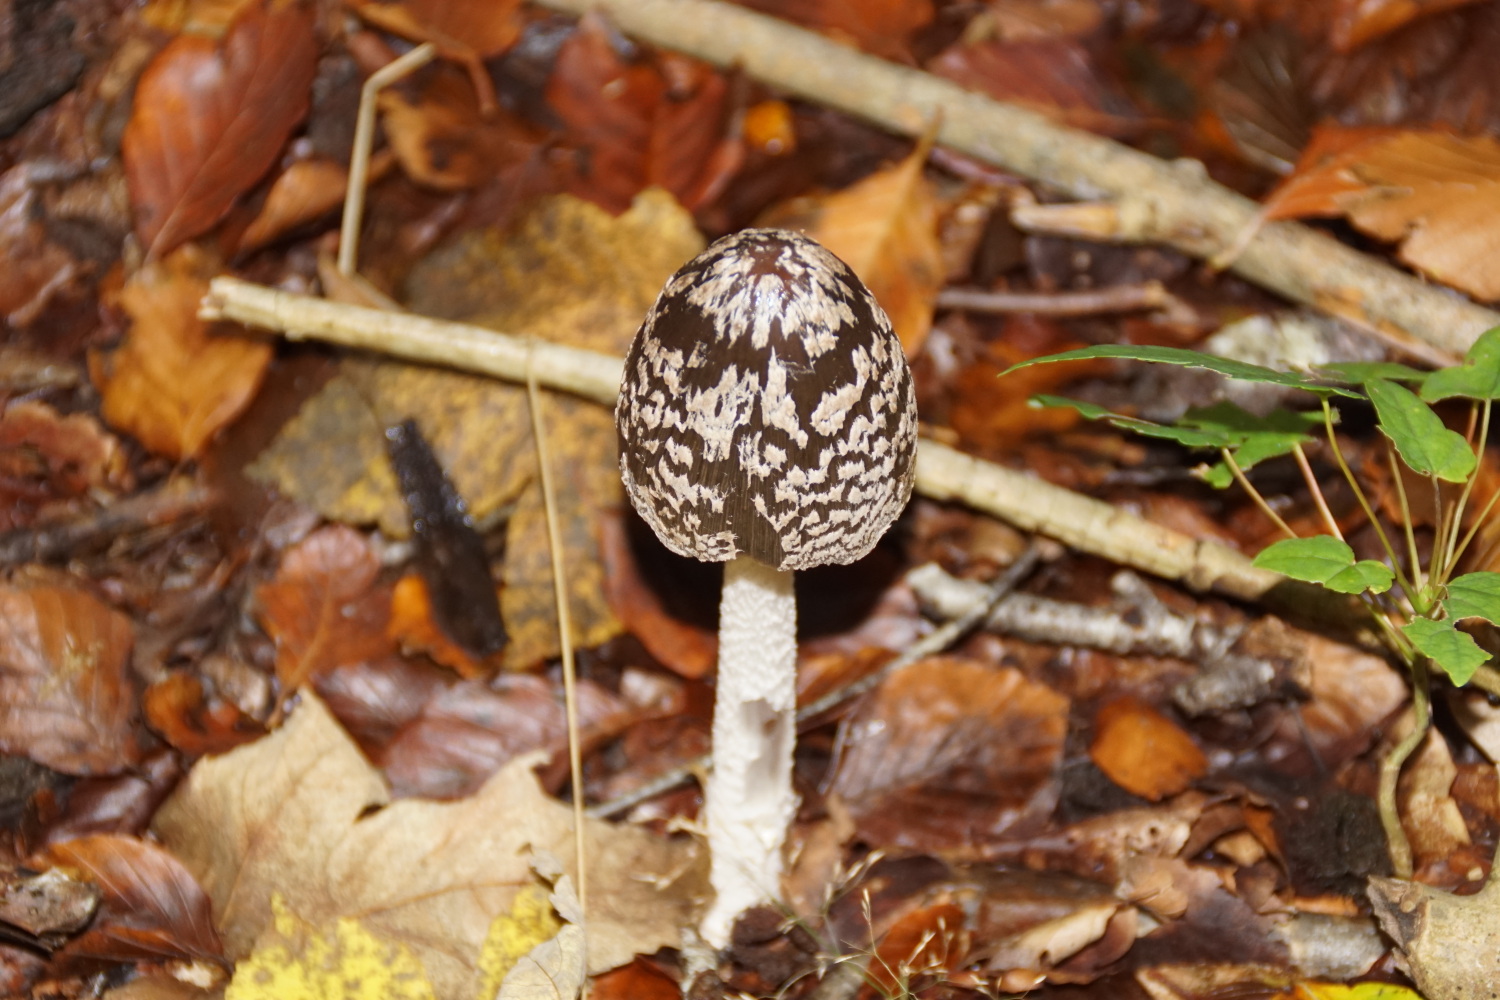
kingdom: Fungi
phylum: Basidiomycota
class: Agaricomycetes
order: Agaricales
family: Psathyrellaceae
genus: Coprinopsis
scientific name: Coprinopsis picacea
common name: skade-blækhat
